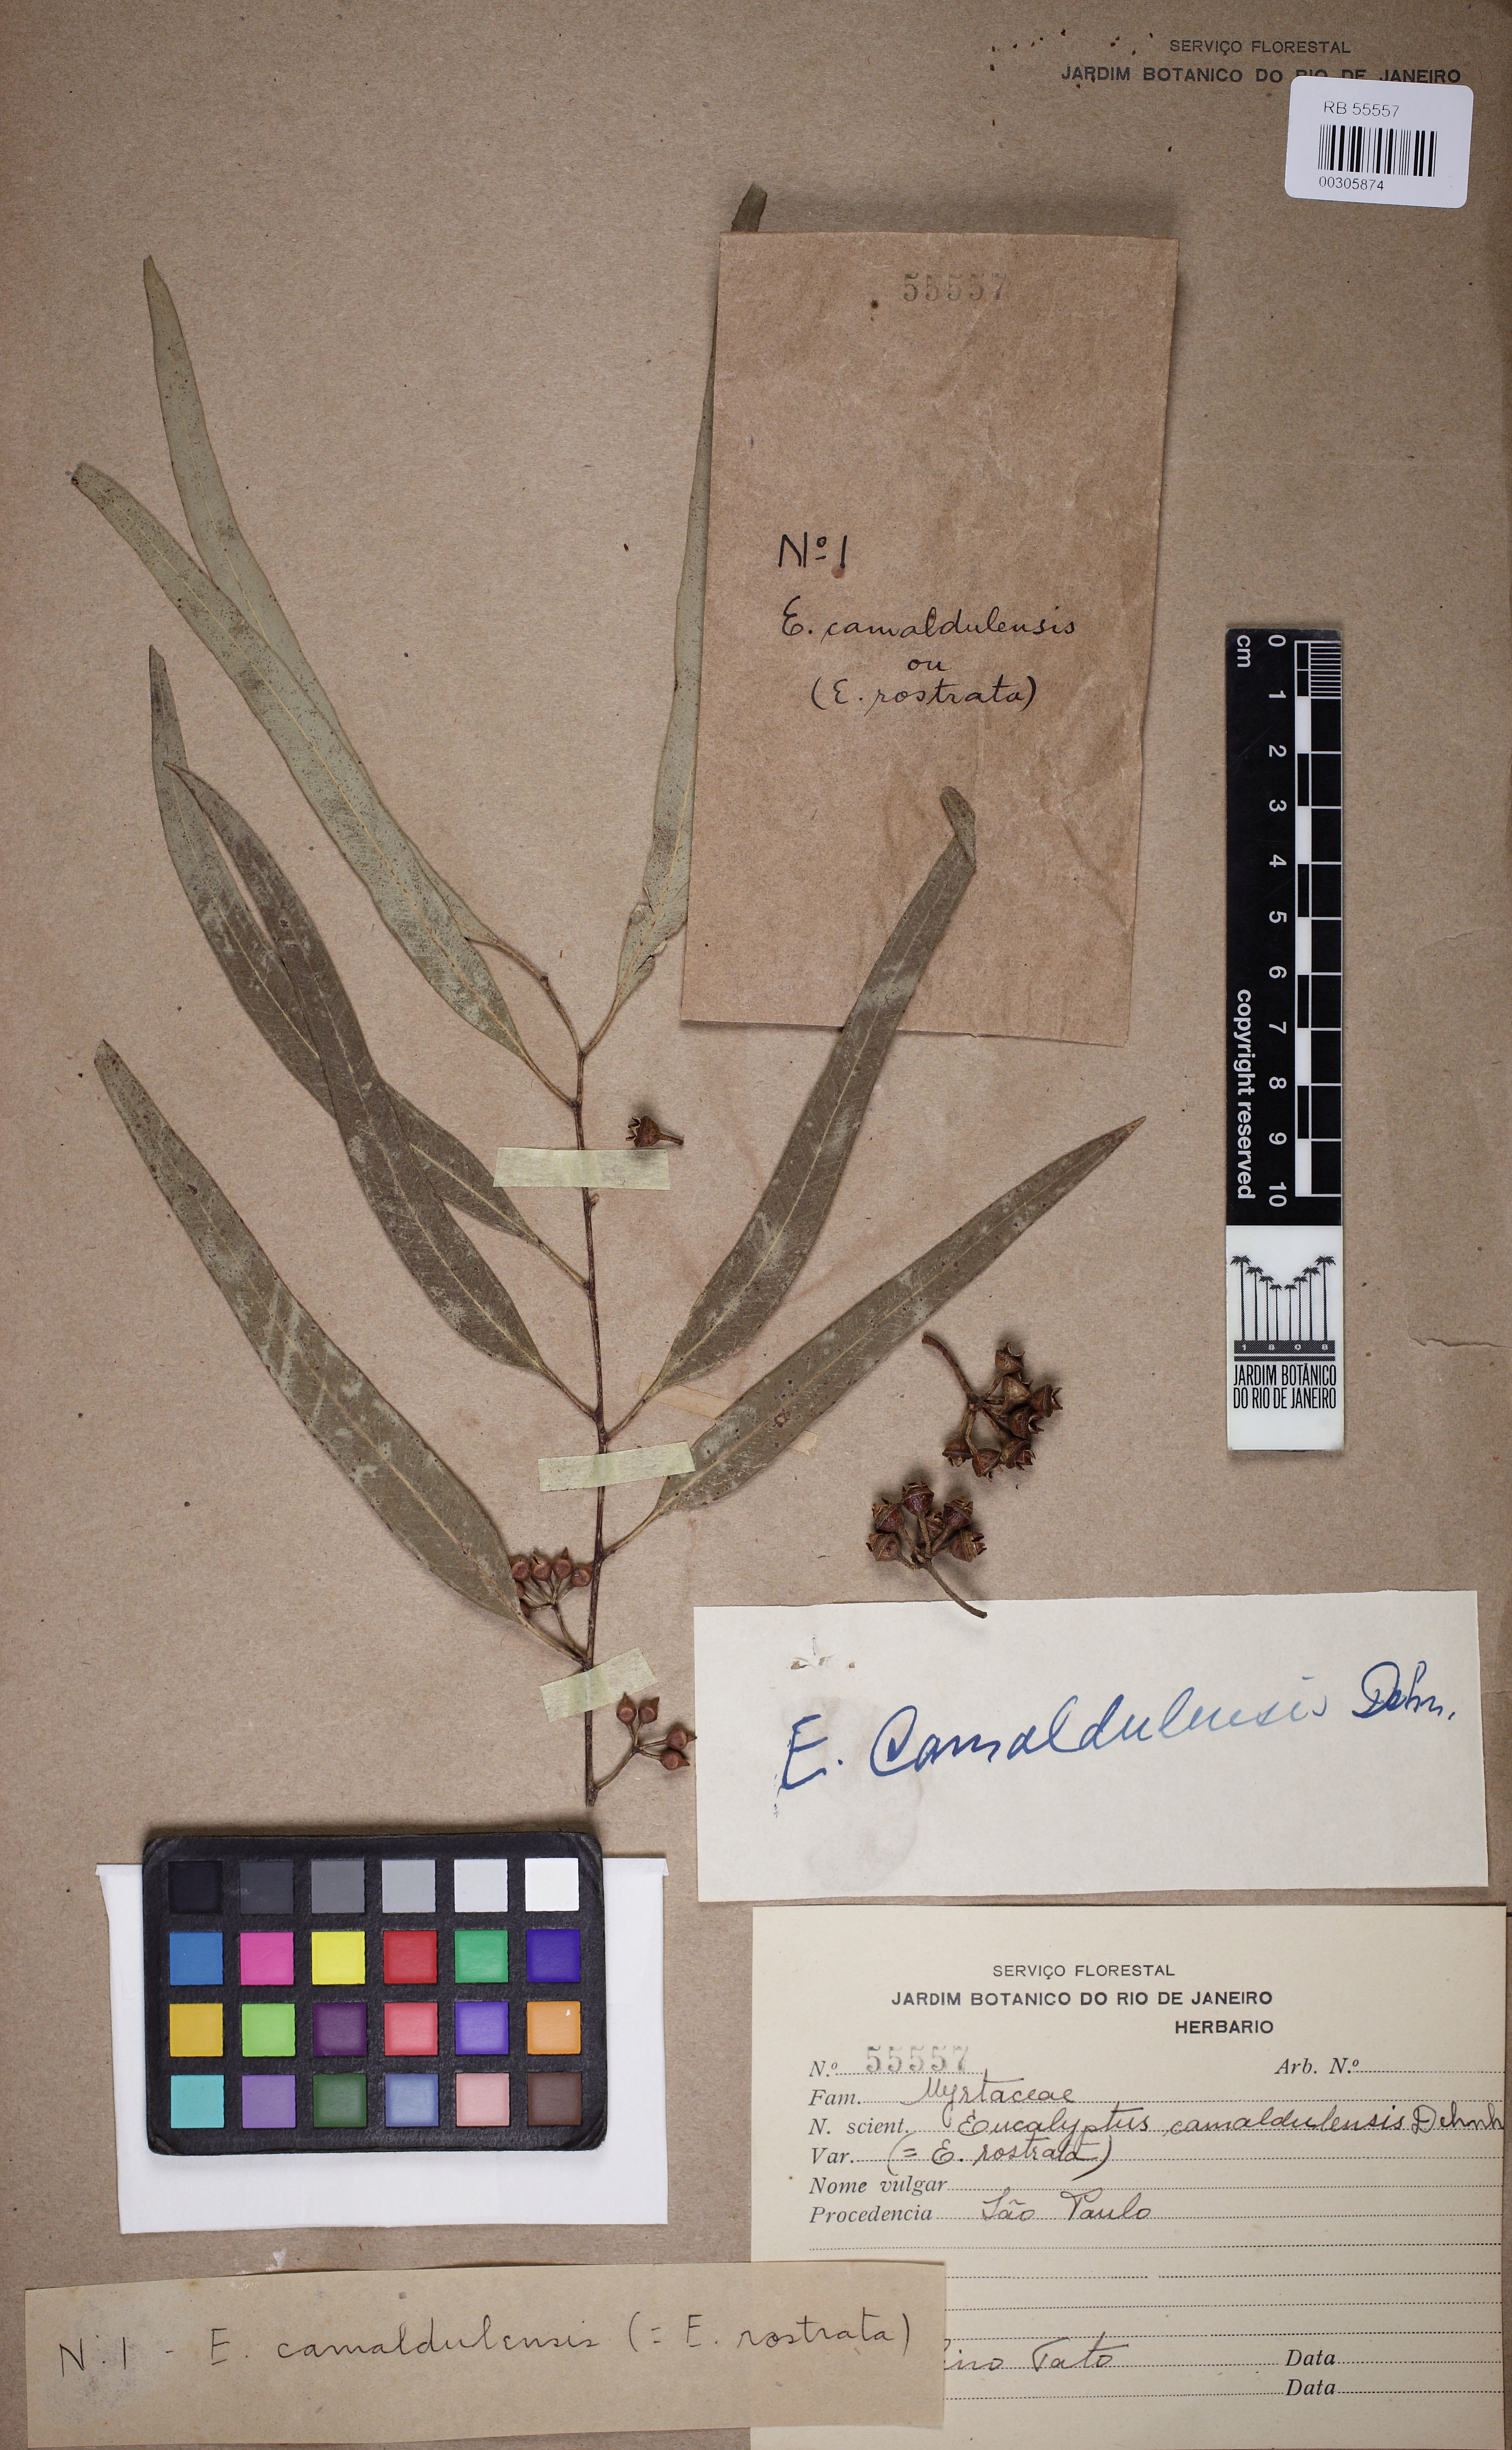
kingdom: Plantae
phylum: Tracheophyta
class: Magnoliopsida
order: Myrtales
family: Myrtaceae
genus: Eucalyptus
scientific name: Eucalyptus camaldulensis
